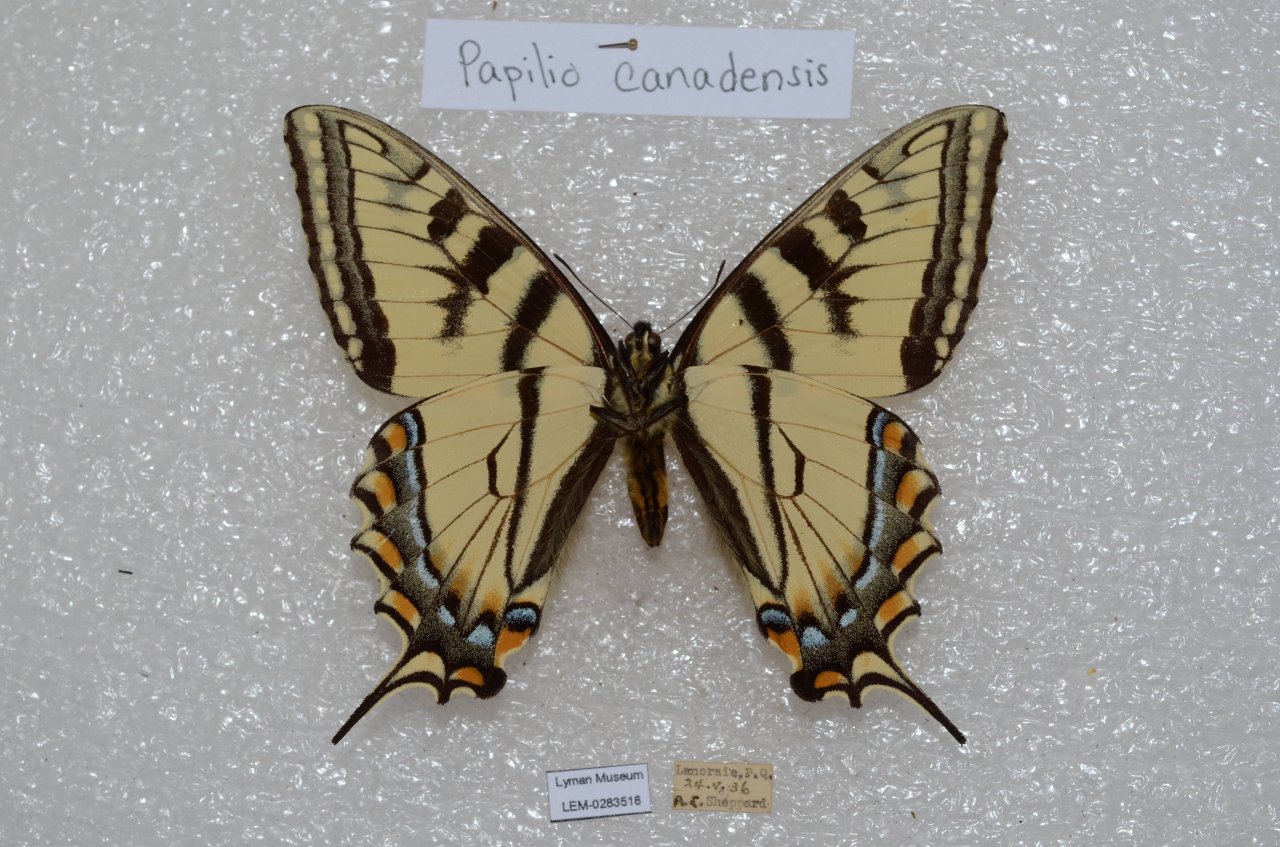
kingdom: Animalia
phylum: Arthropoda
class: Insecta
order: Lepidoptera
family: Papilionidae
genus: Pterourus
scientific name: Pterourus canadensis
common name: Canadian Tiger Swallowtail
